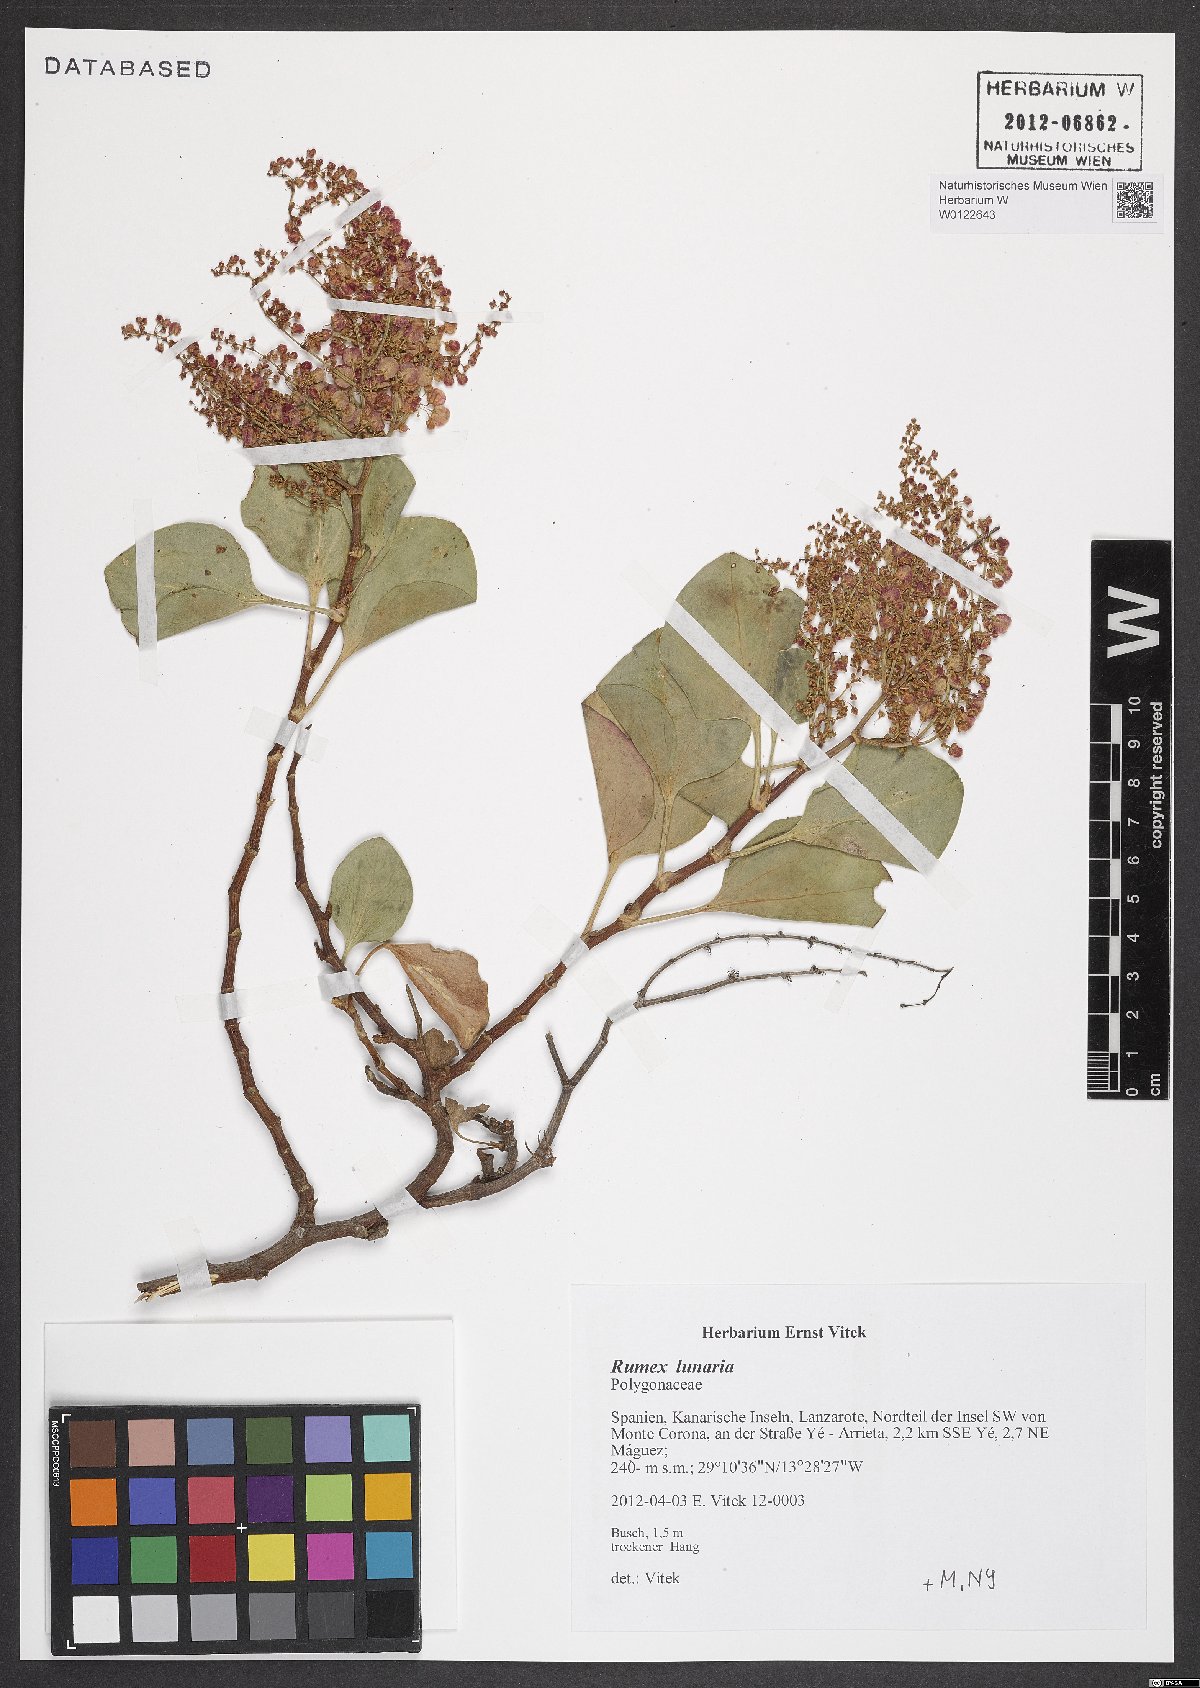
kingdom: Plantae
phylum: Tracheophyta
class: Magnoliopsida
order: Caryophyllales
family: Polygonaceae
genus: Rumex
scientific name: Rumex lunaria
